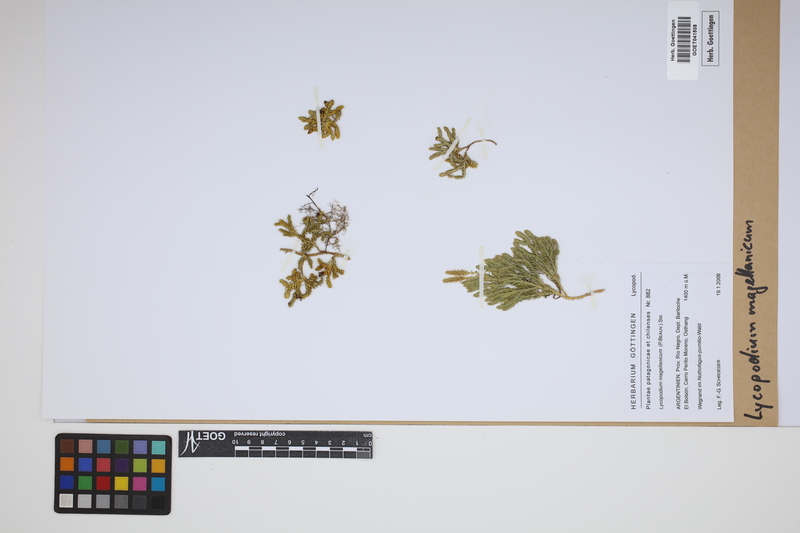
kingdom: Plantae
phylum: Tracheophyta
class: Lycopodiopsida
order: Lycopodiales
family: Lycopodiaceae
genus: Austrolycopodium
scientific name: Austrolycopodium magellanicum
